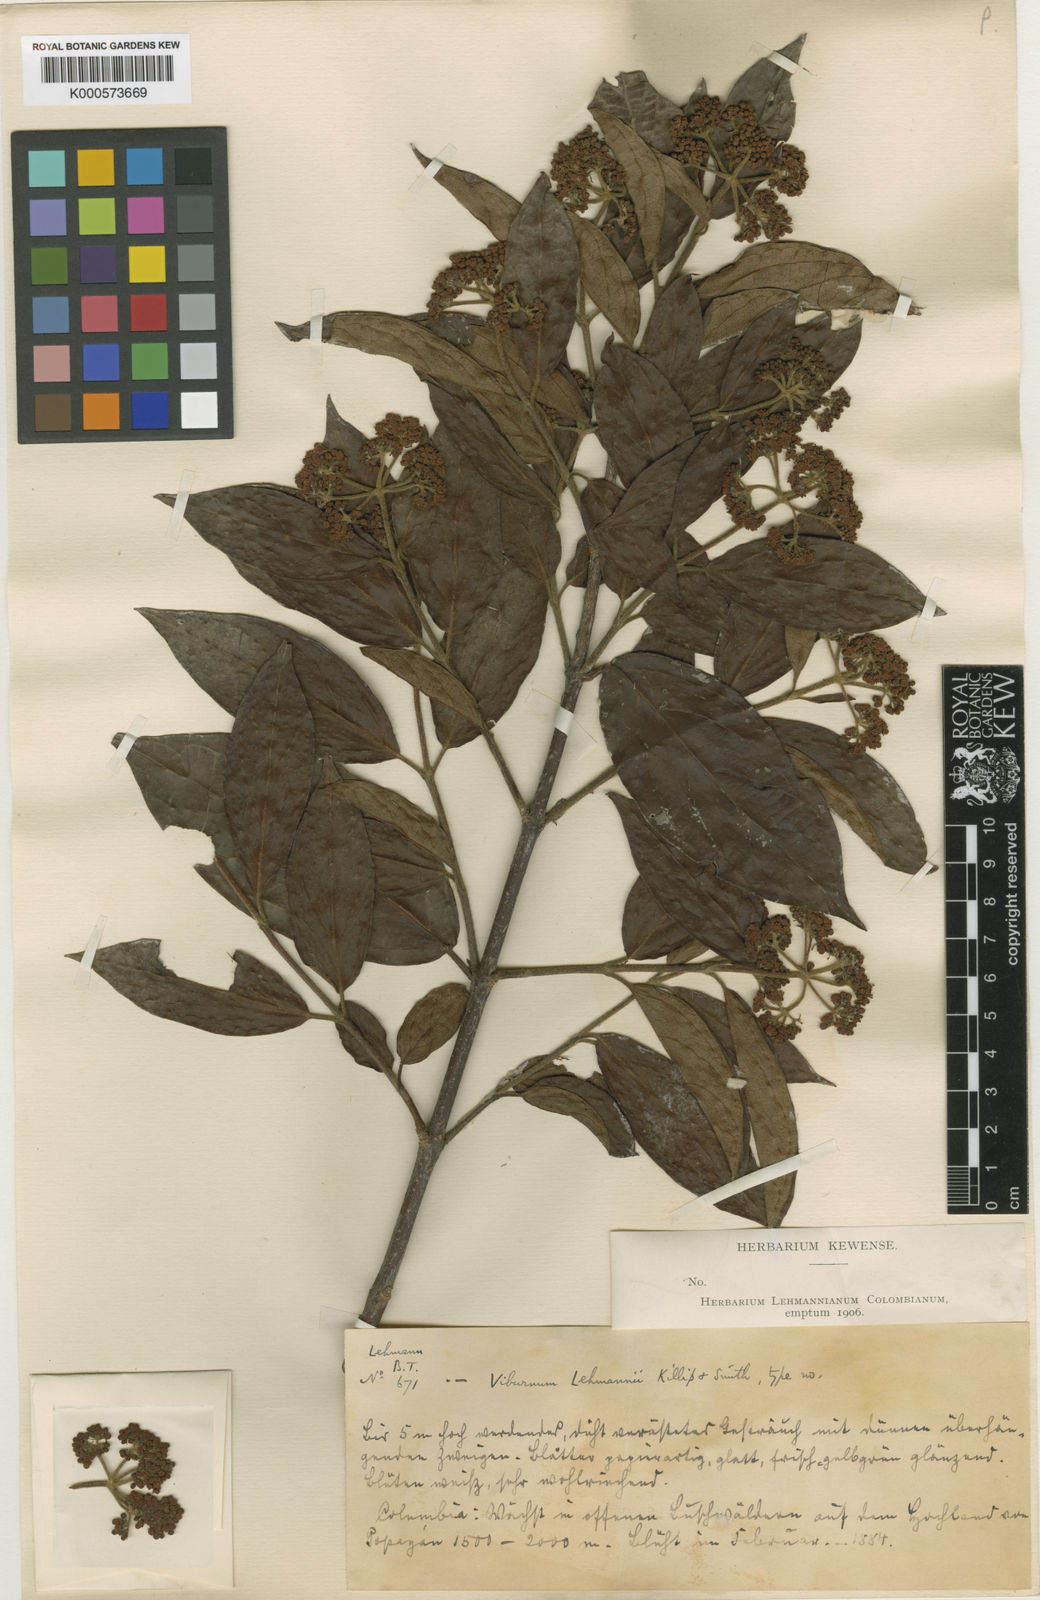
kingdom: Plantae
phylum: Tracheophyta
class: Magnoliopsida
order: Dipsacales
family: Viburnaceae
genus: Viburnum
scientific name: Viburnum lehmannii
